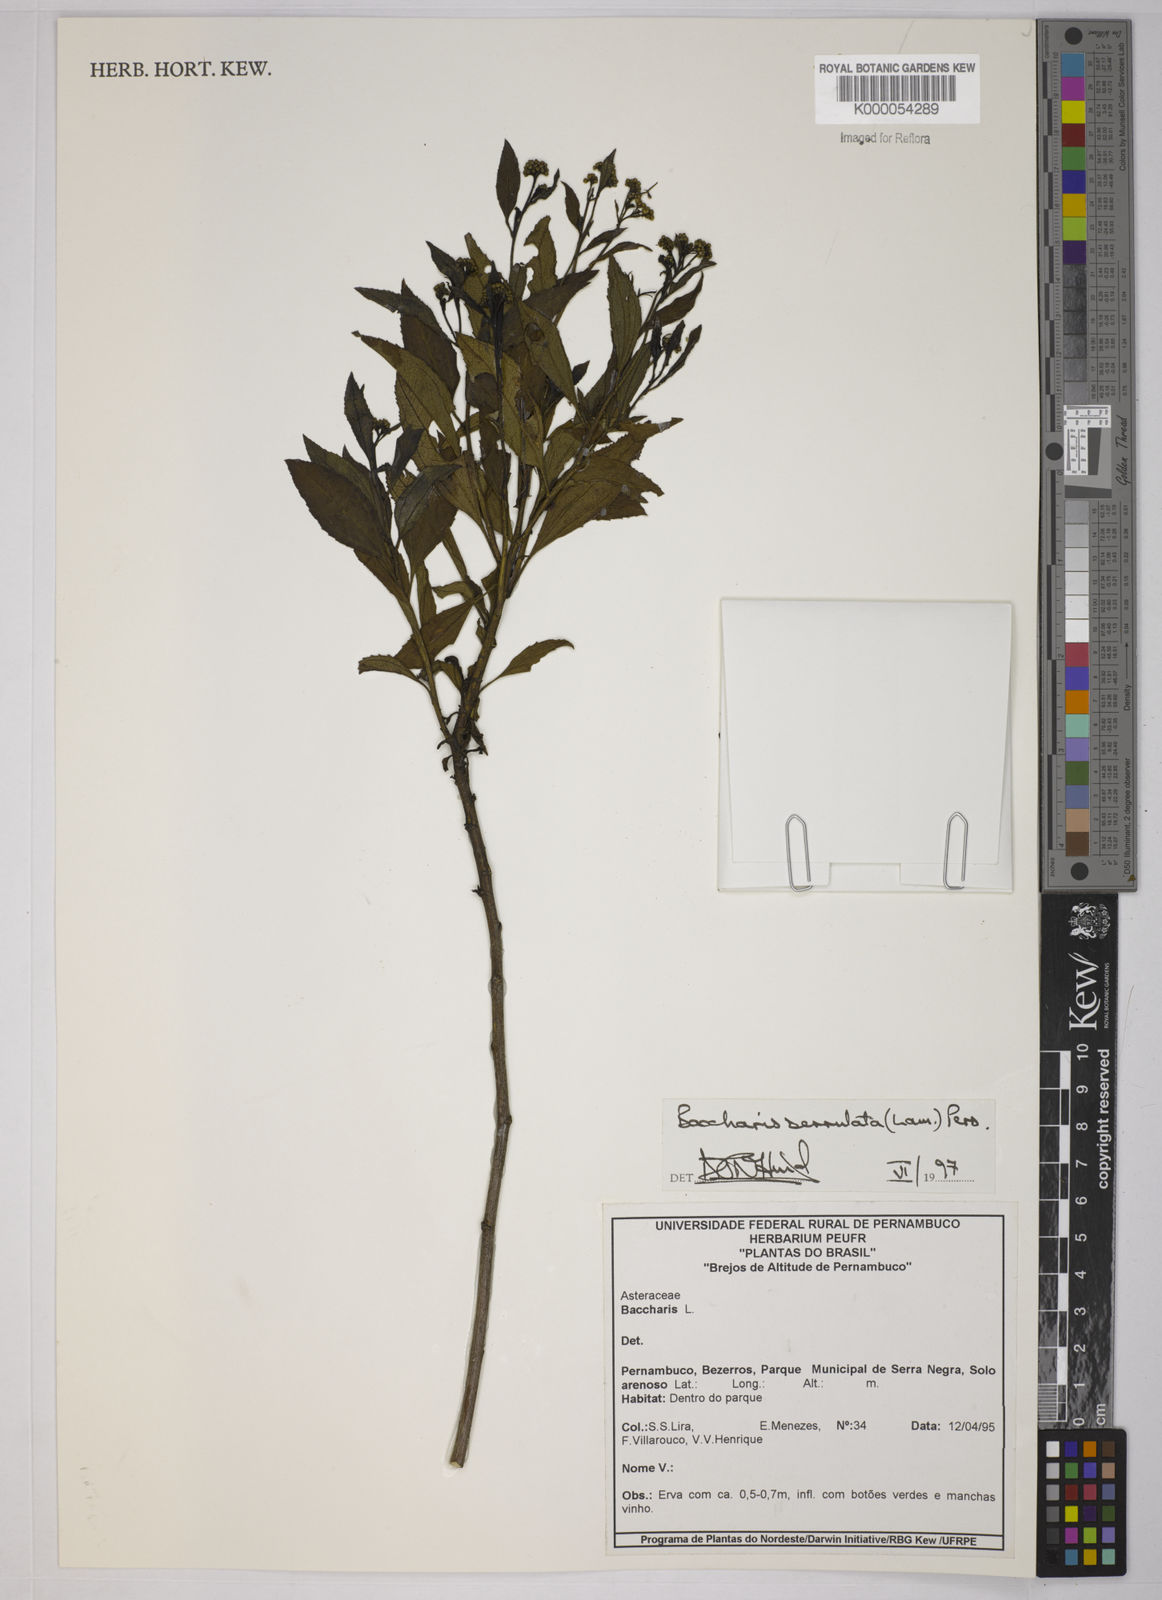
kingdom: Plantae
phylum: Tracheophyta
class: Magnoliopsida
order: Asterales
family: Asteraceae
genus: Baccharis
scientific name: Baccharis serrulata
